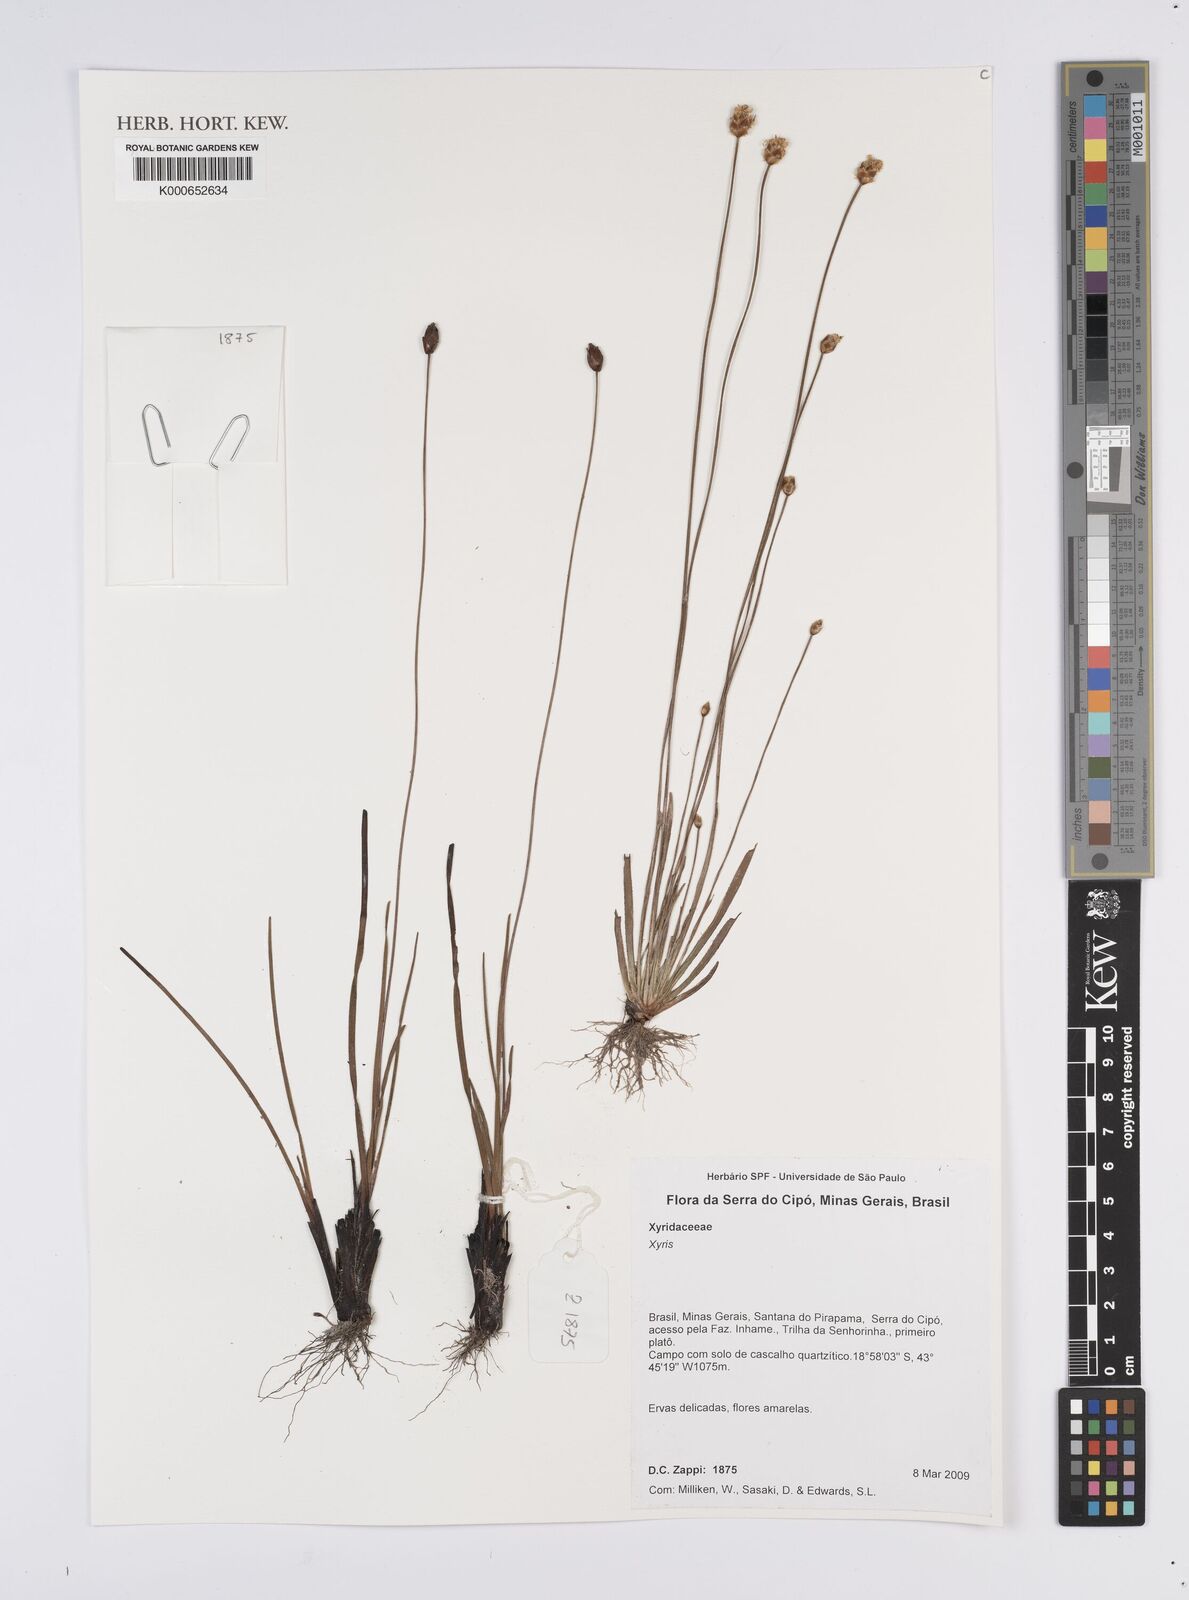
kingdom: Plantae
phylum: Tracheophyta
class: Liliopsida
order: Poales
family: Xyridaceae
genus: Xyris
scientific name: Xyris
